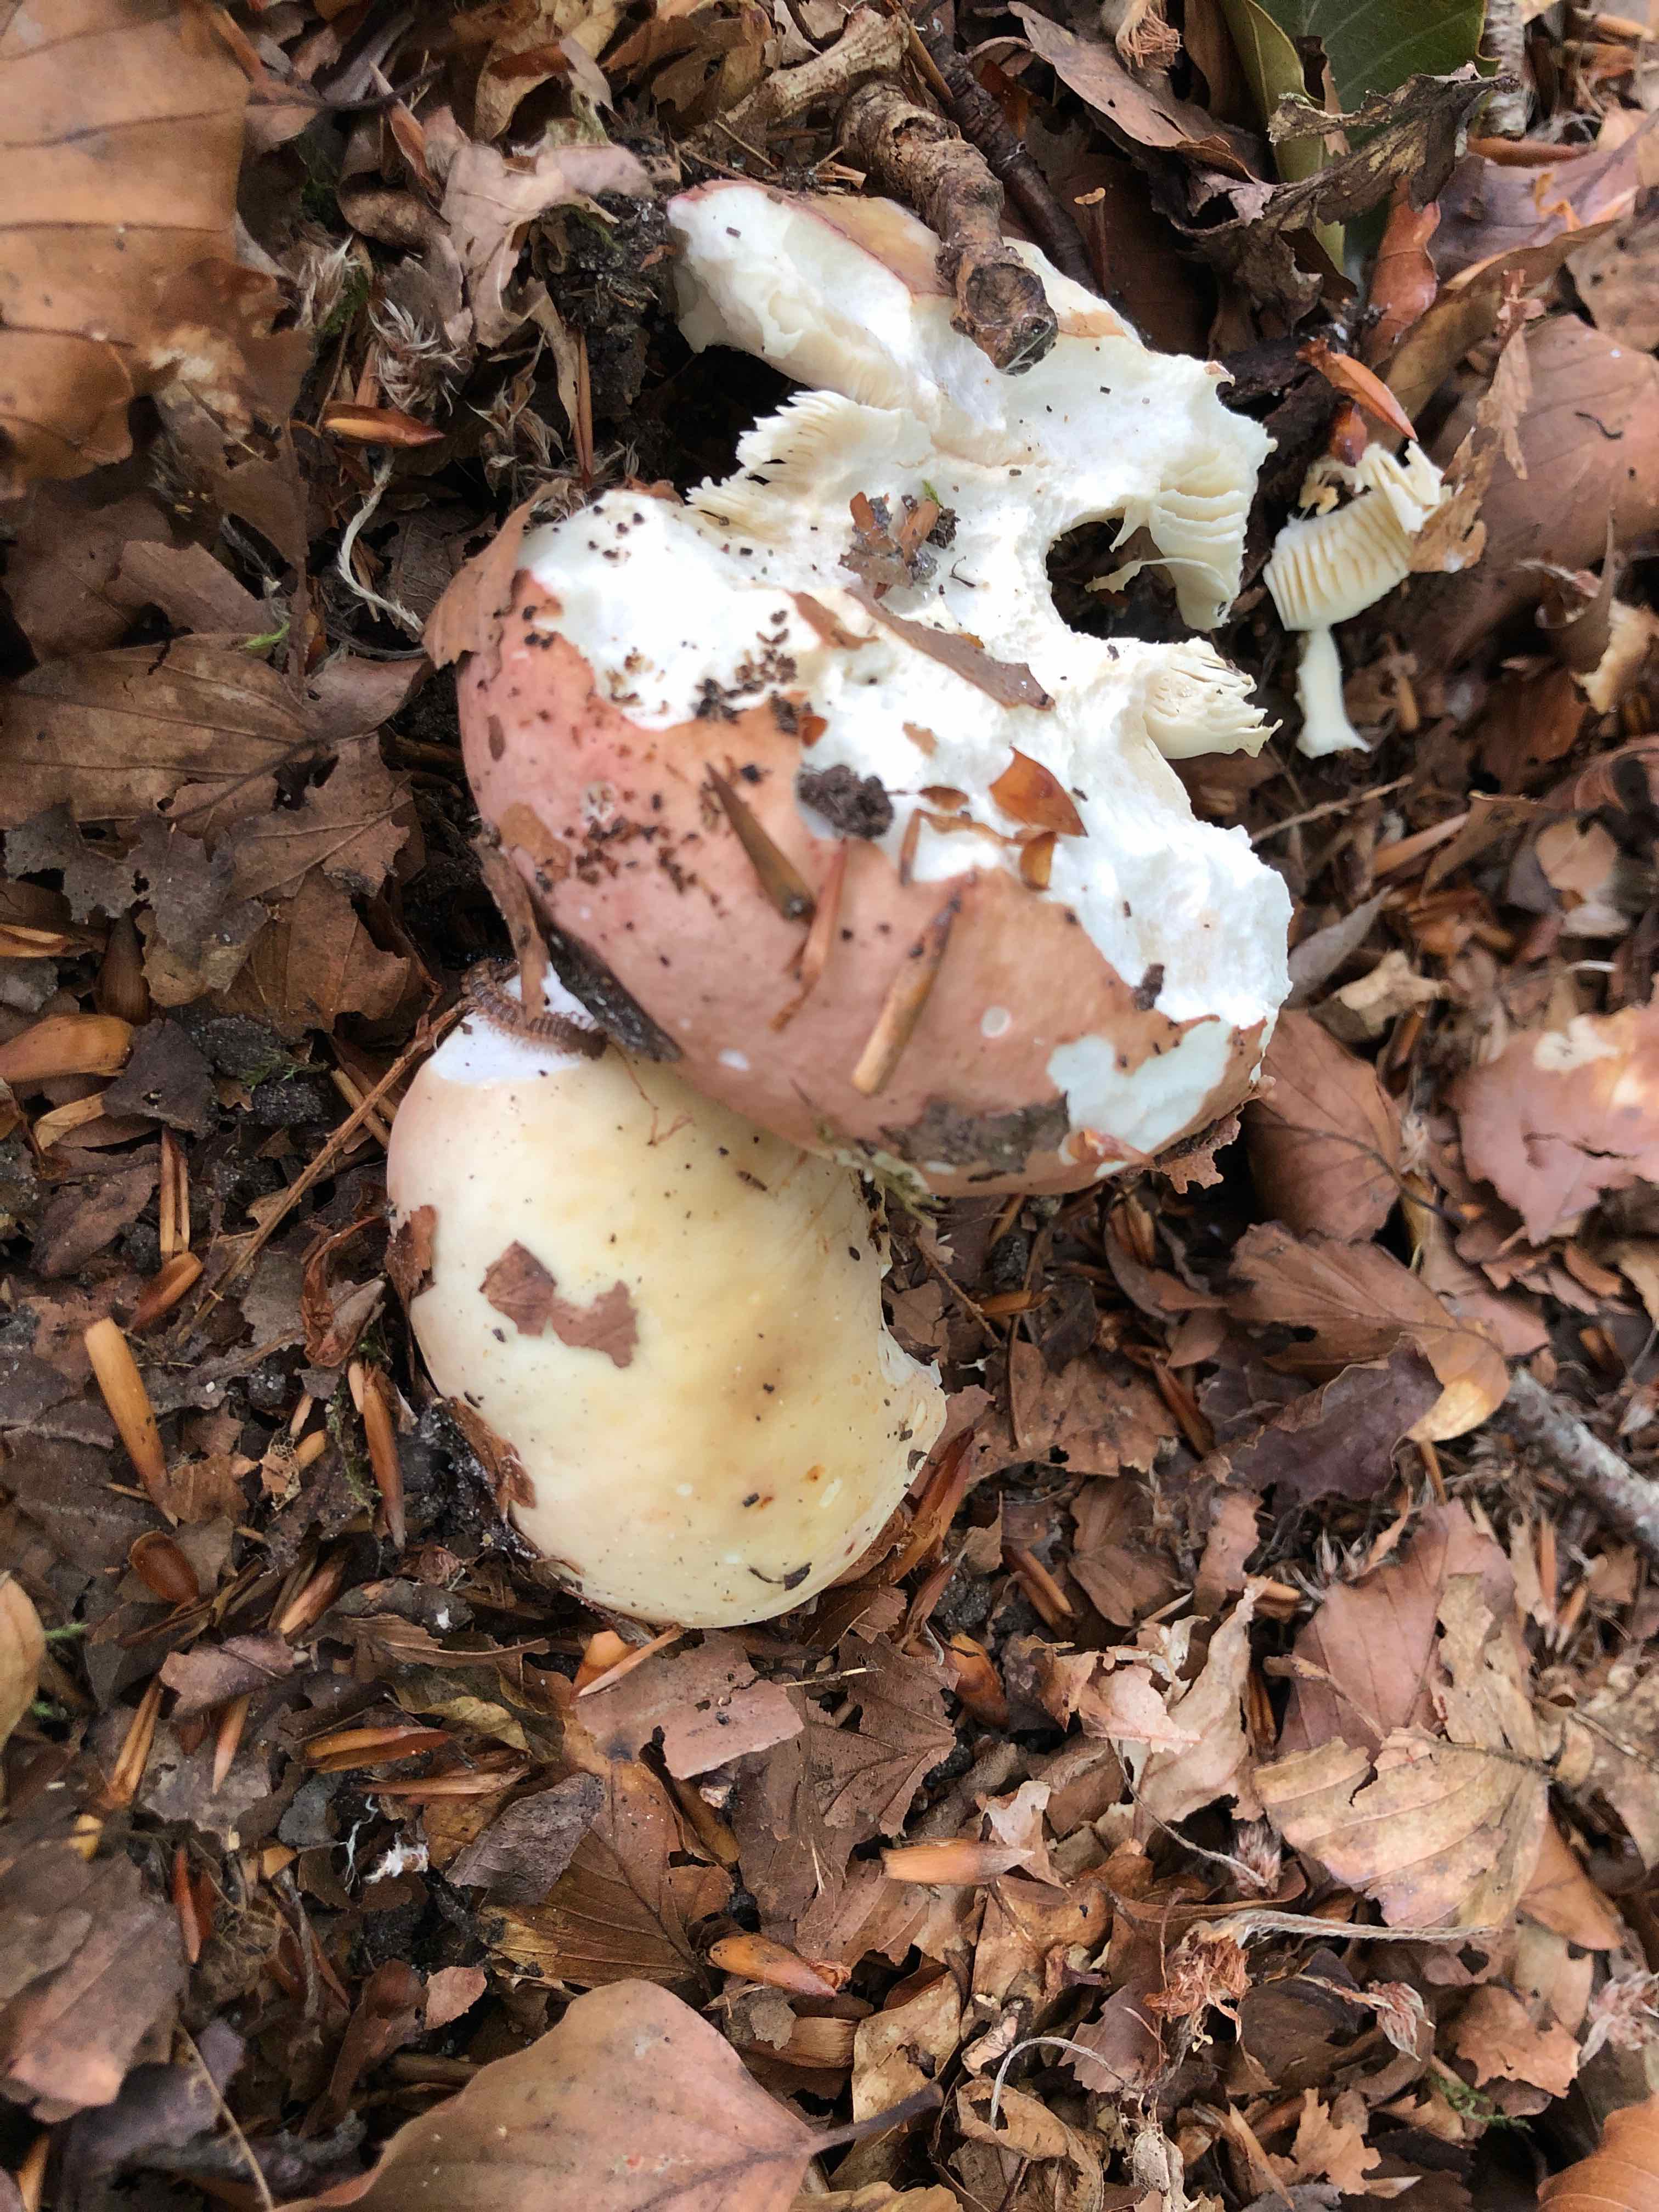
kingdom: Fungi
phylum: Basidiomycota
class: Agaricomycetes
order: Russulales
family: Russulaceae
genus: Russula
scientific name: Russula
